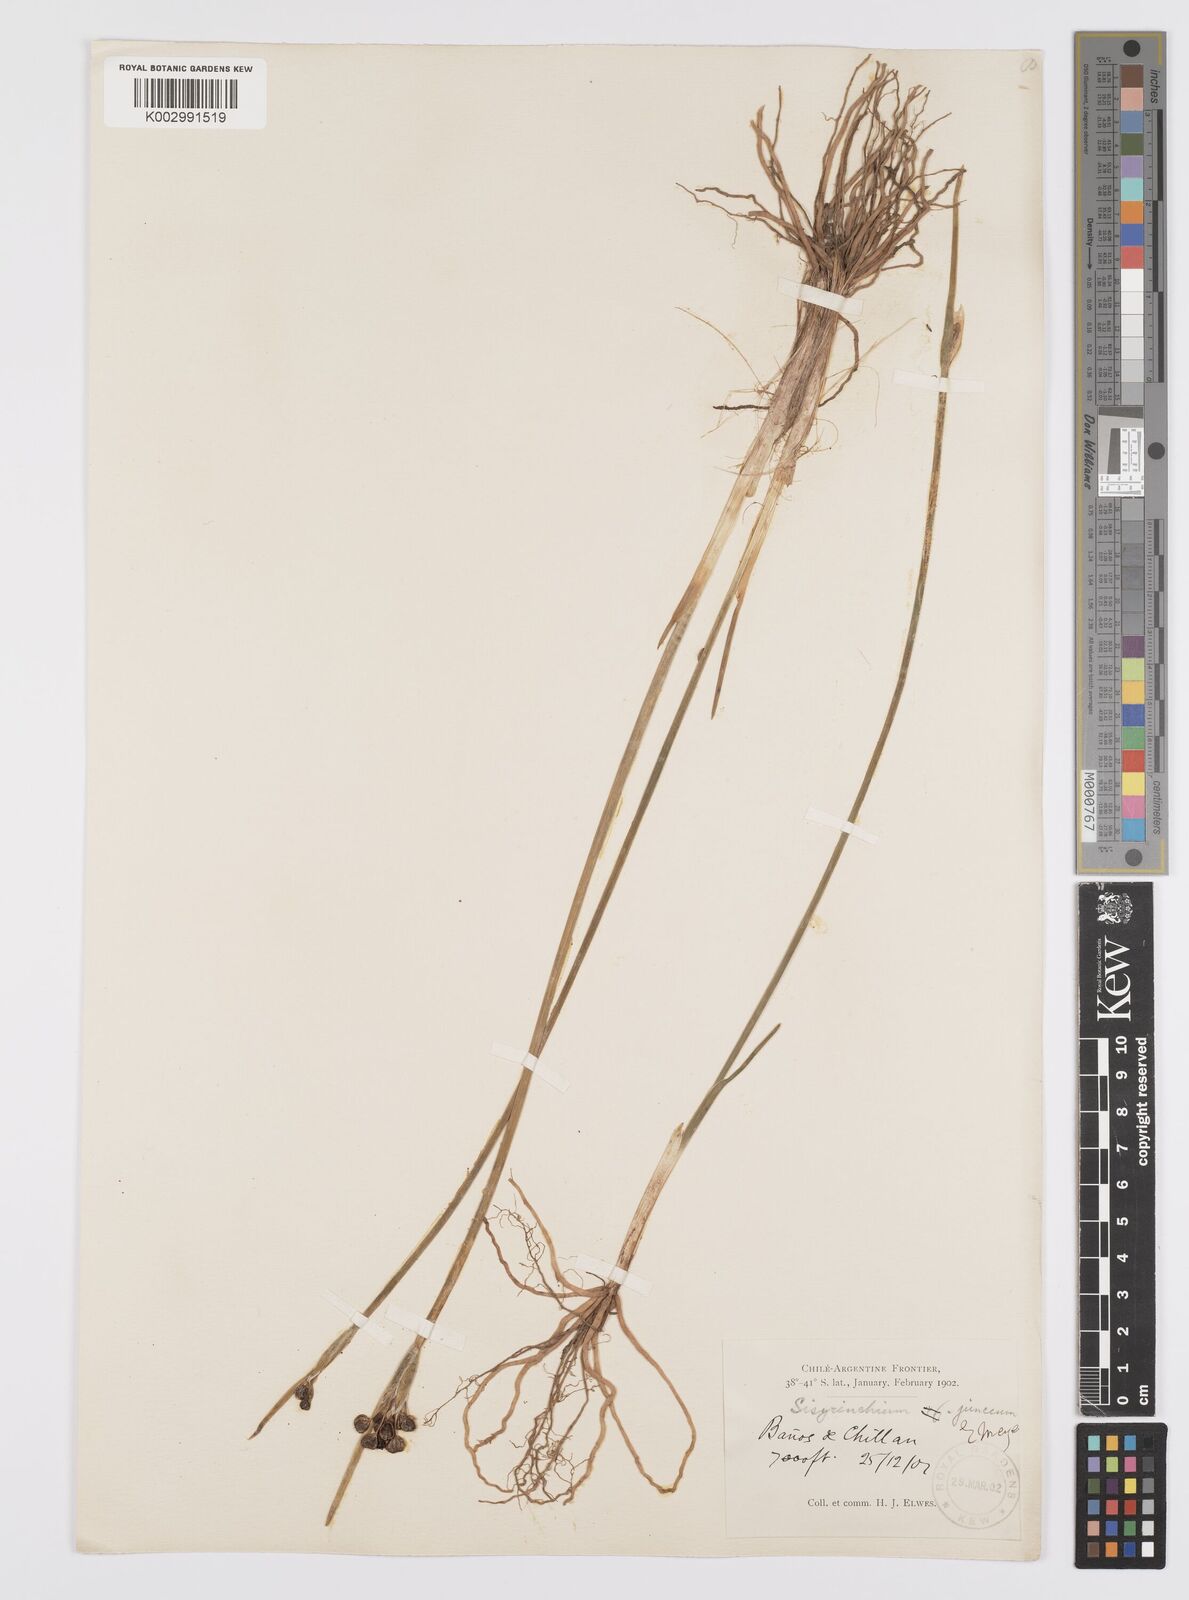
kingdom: Plantae
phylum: Tracheophyta
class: Liliopsida
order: Asparagales
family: Iridaceae
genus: Olsynium
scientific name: Olsynium junceum
